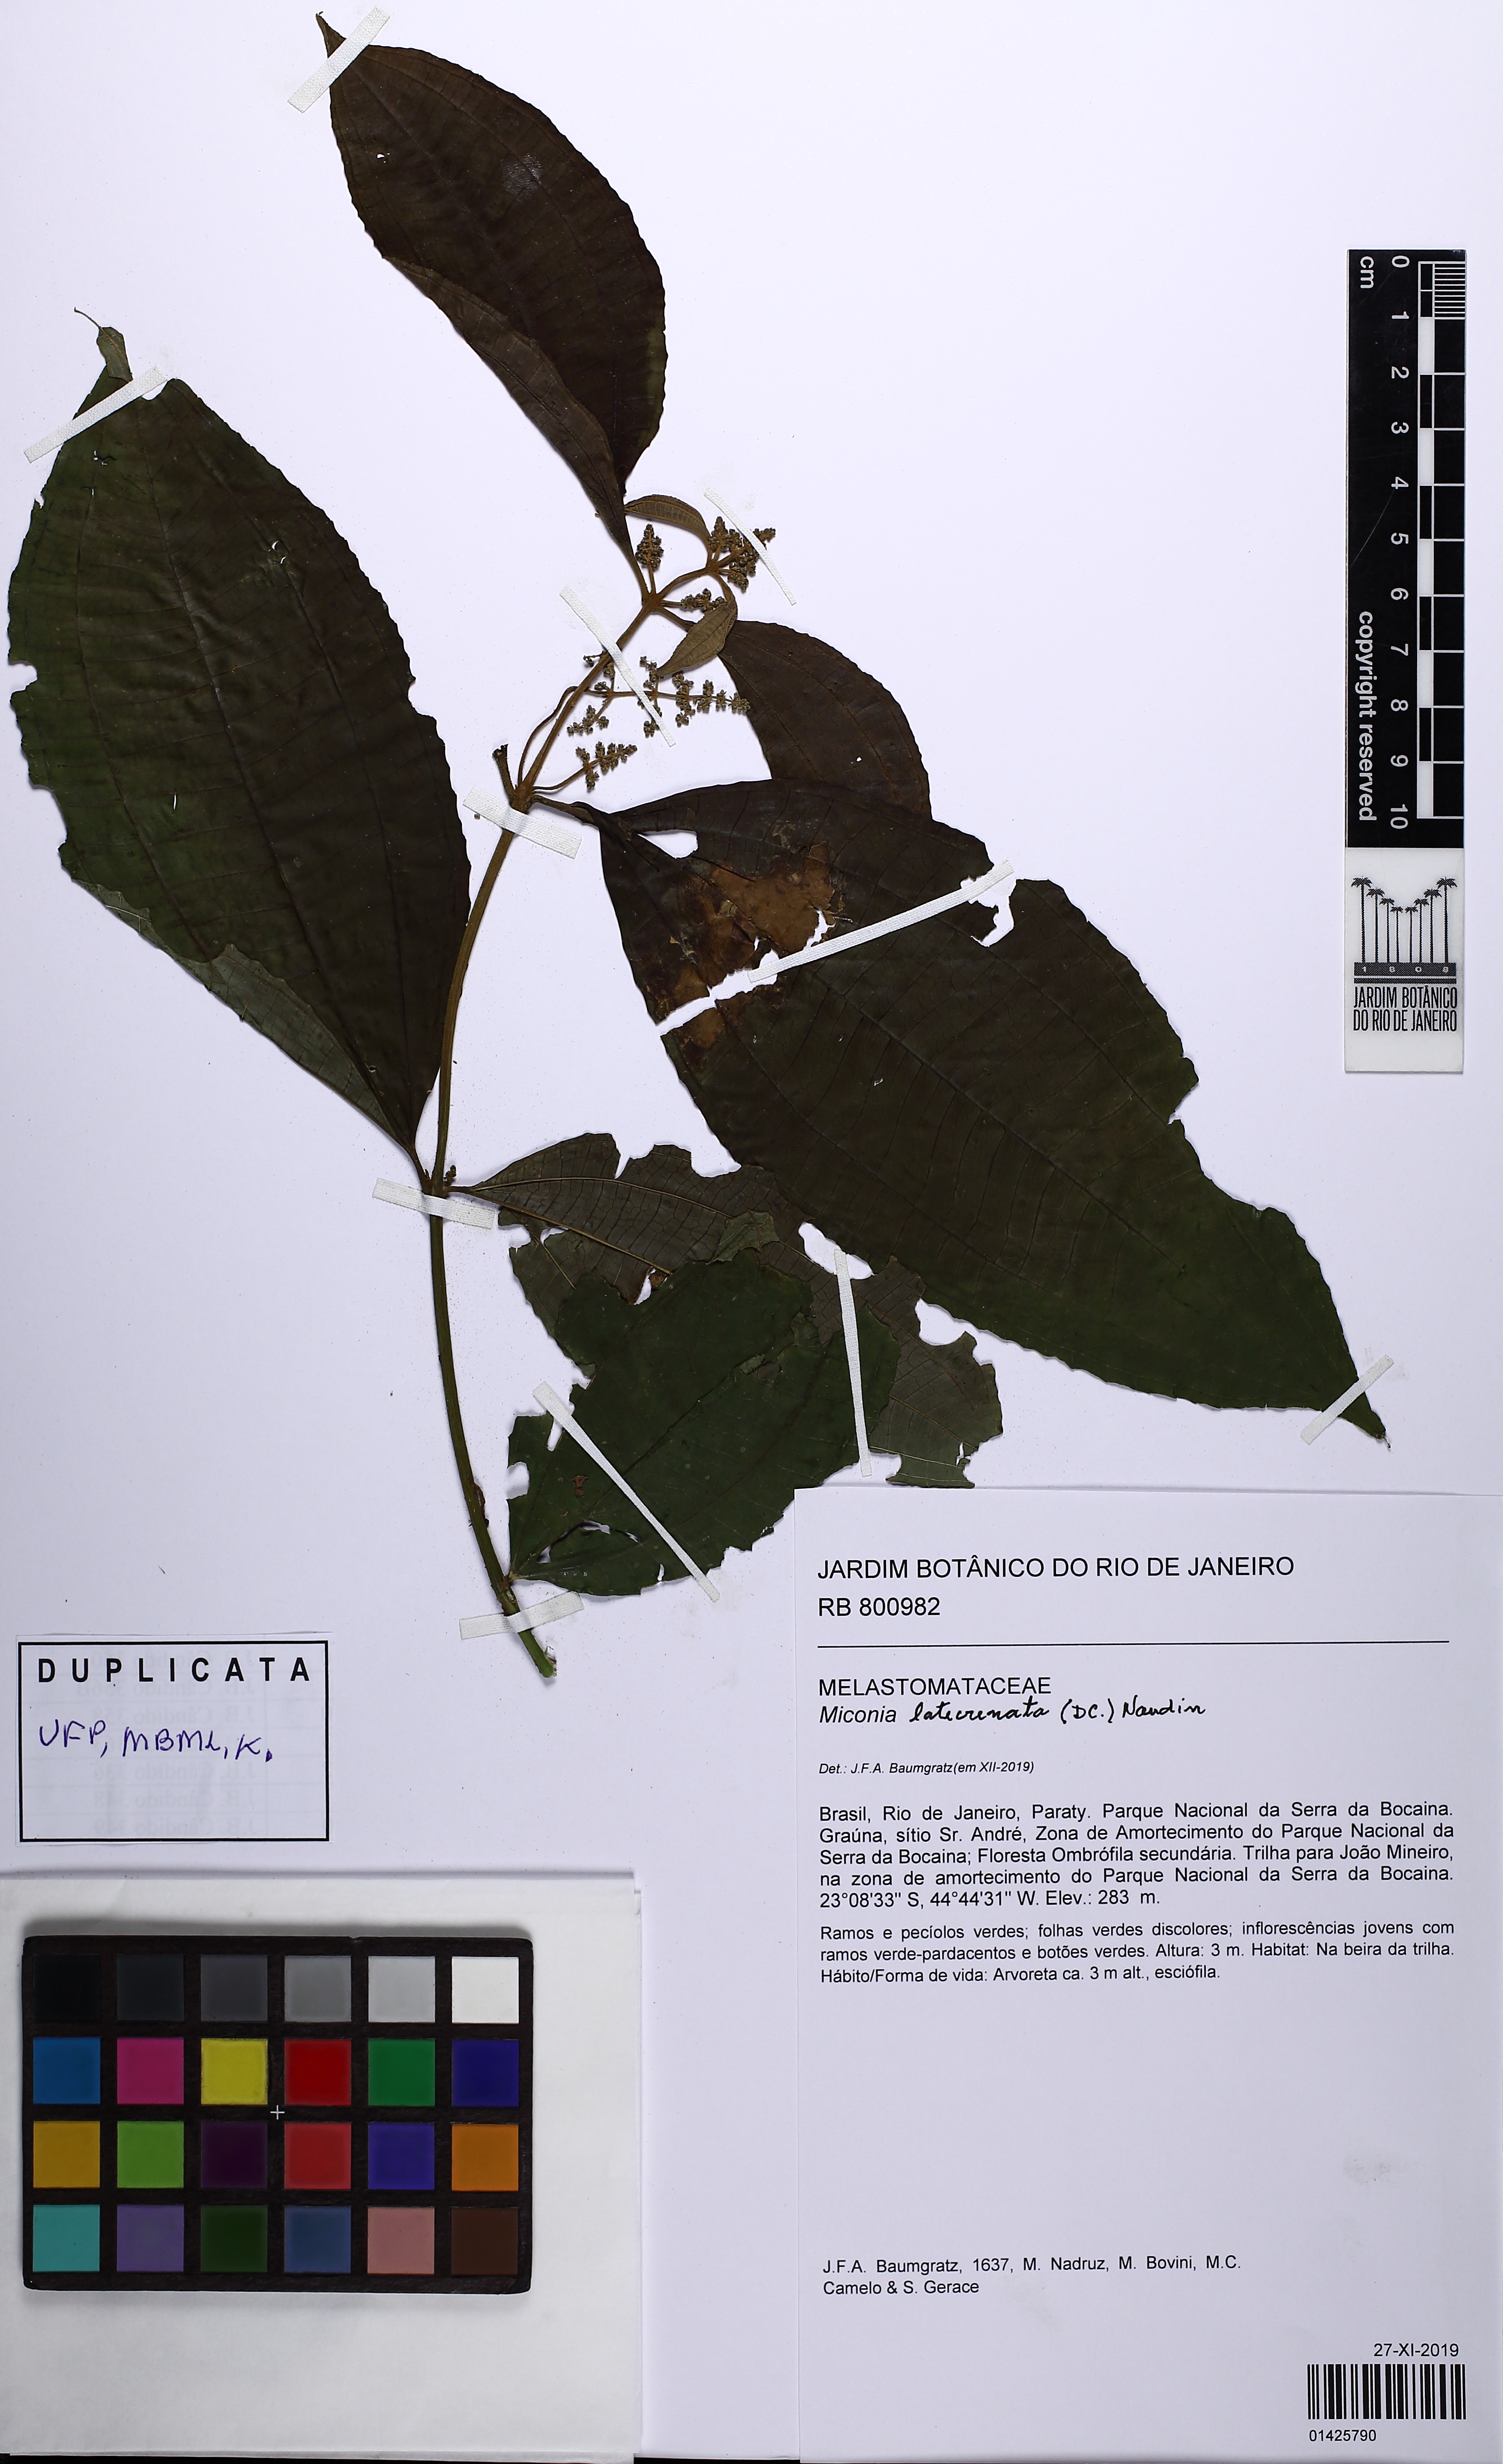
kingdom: Plantae
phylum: Tracheophyta
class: Magnoliopsida
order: Myrtales
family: Melastomataceae
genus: Miconia
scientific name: Miconia latecrenata
